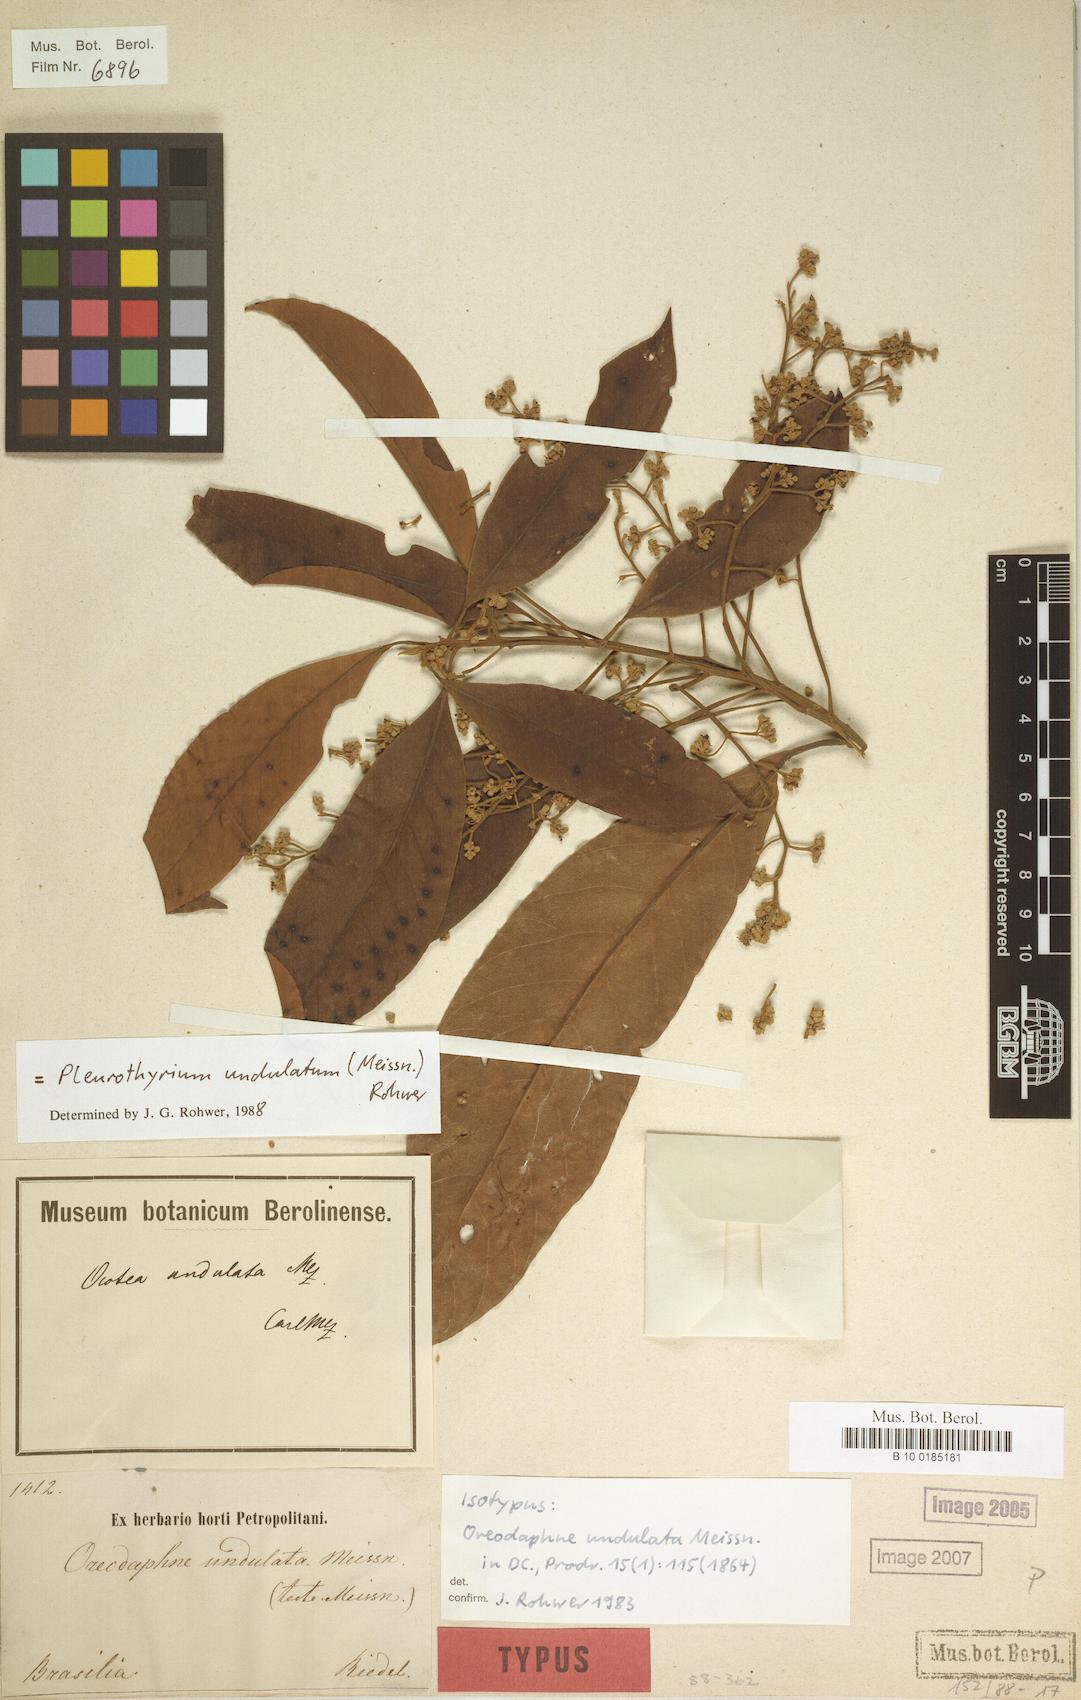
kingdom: Plantae
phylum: Tracheophyta
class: Magnoliopsida
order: Laurales
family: Lauraceae
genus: Pleurothyrium
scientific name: Pleurothyrium undulatum
